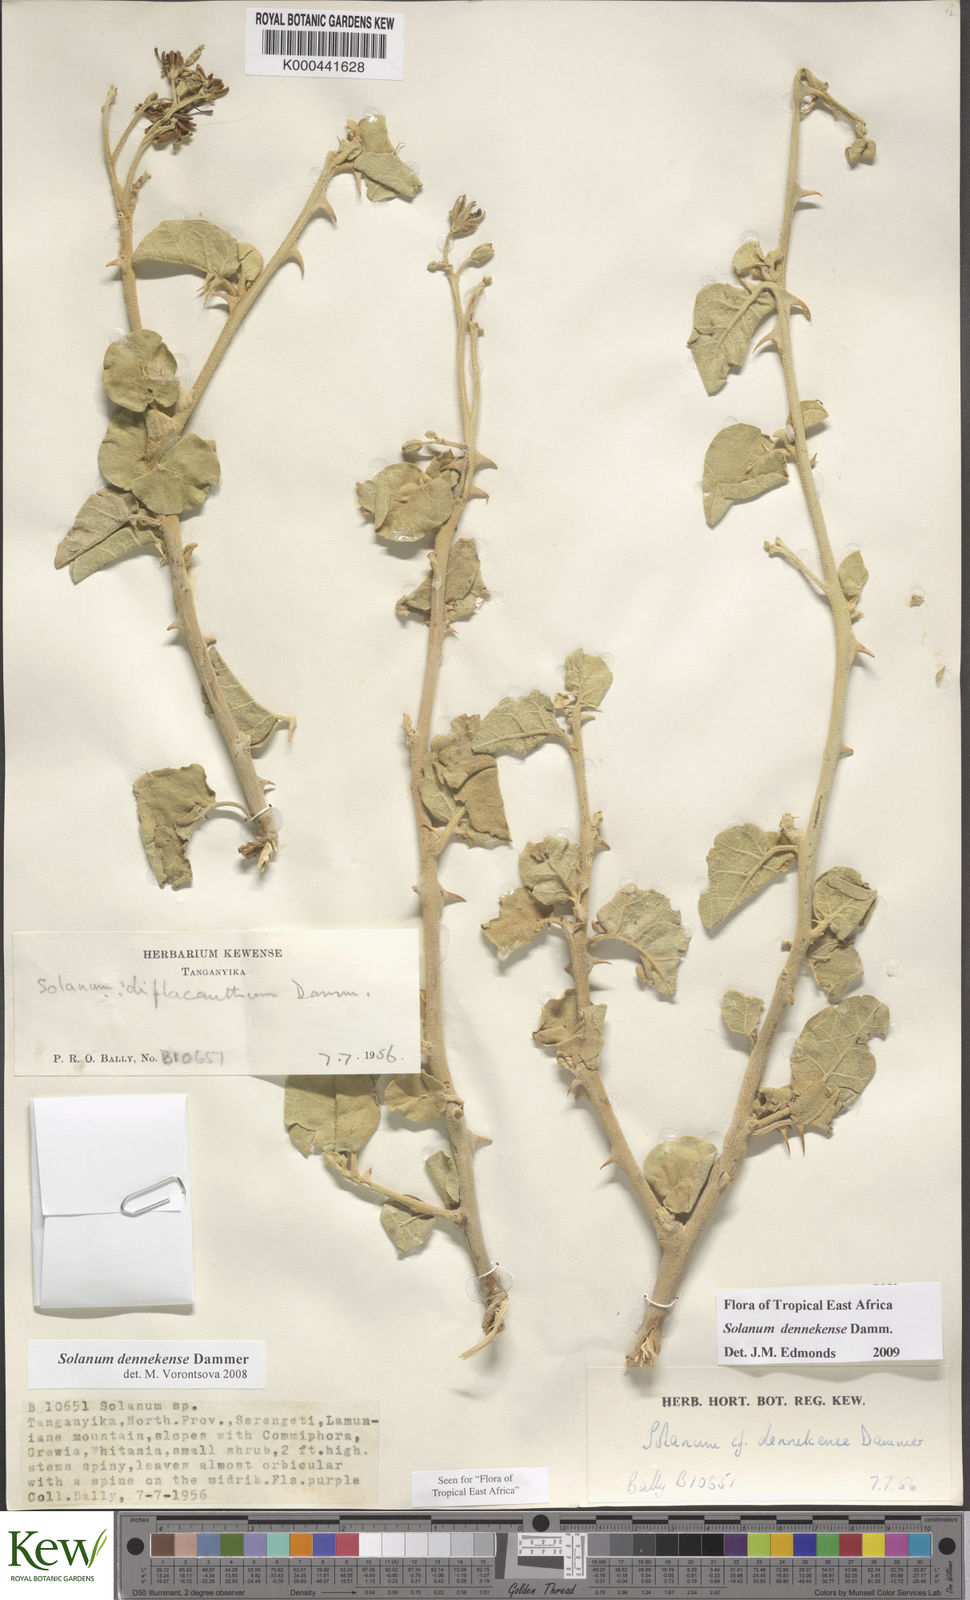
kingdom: Plantae
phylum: Tracheophyta
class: Magnoliopsida
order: Solanales
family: Solanaceae
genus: Solanum
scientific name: Solanum dennekense
